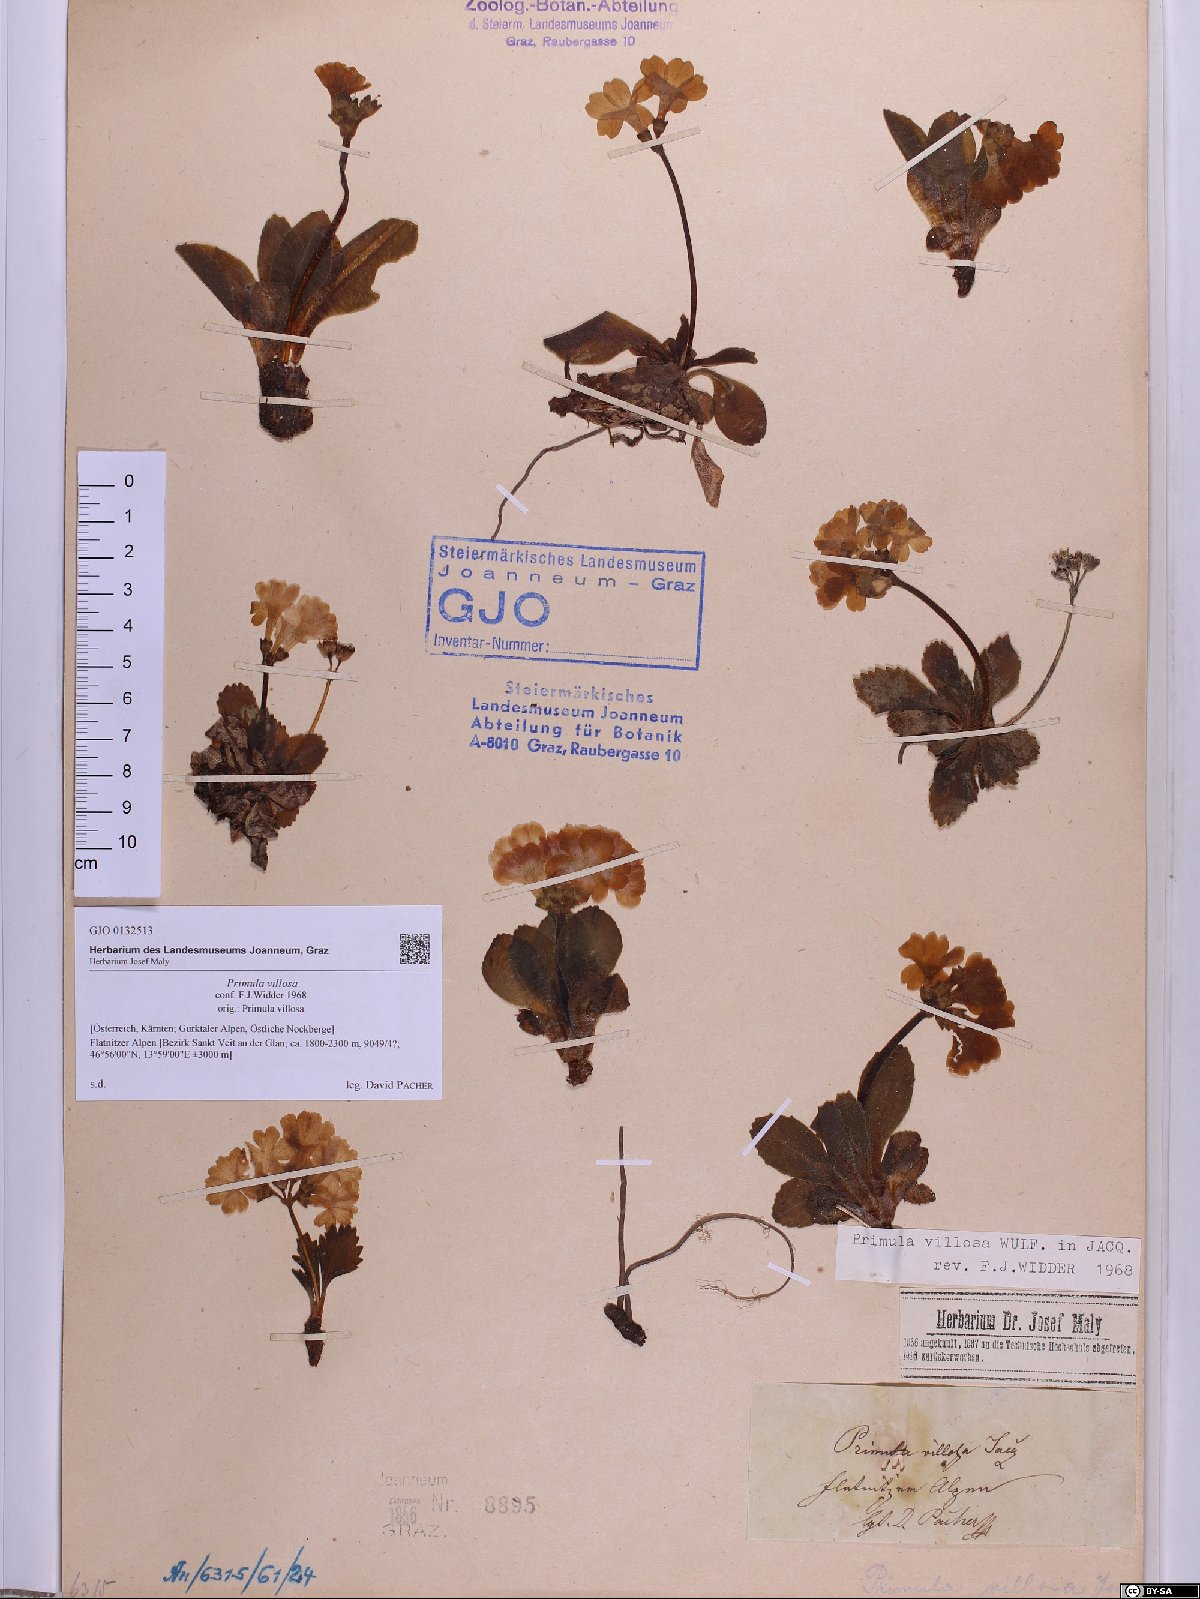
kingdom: Plantae
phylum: Tracheophyta
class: Magnoliopsida
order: Ericales
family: Primulaceae
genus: Primula
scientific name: Primula villosa
